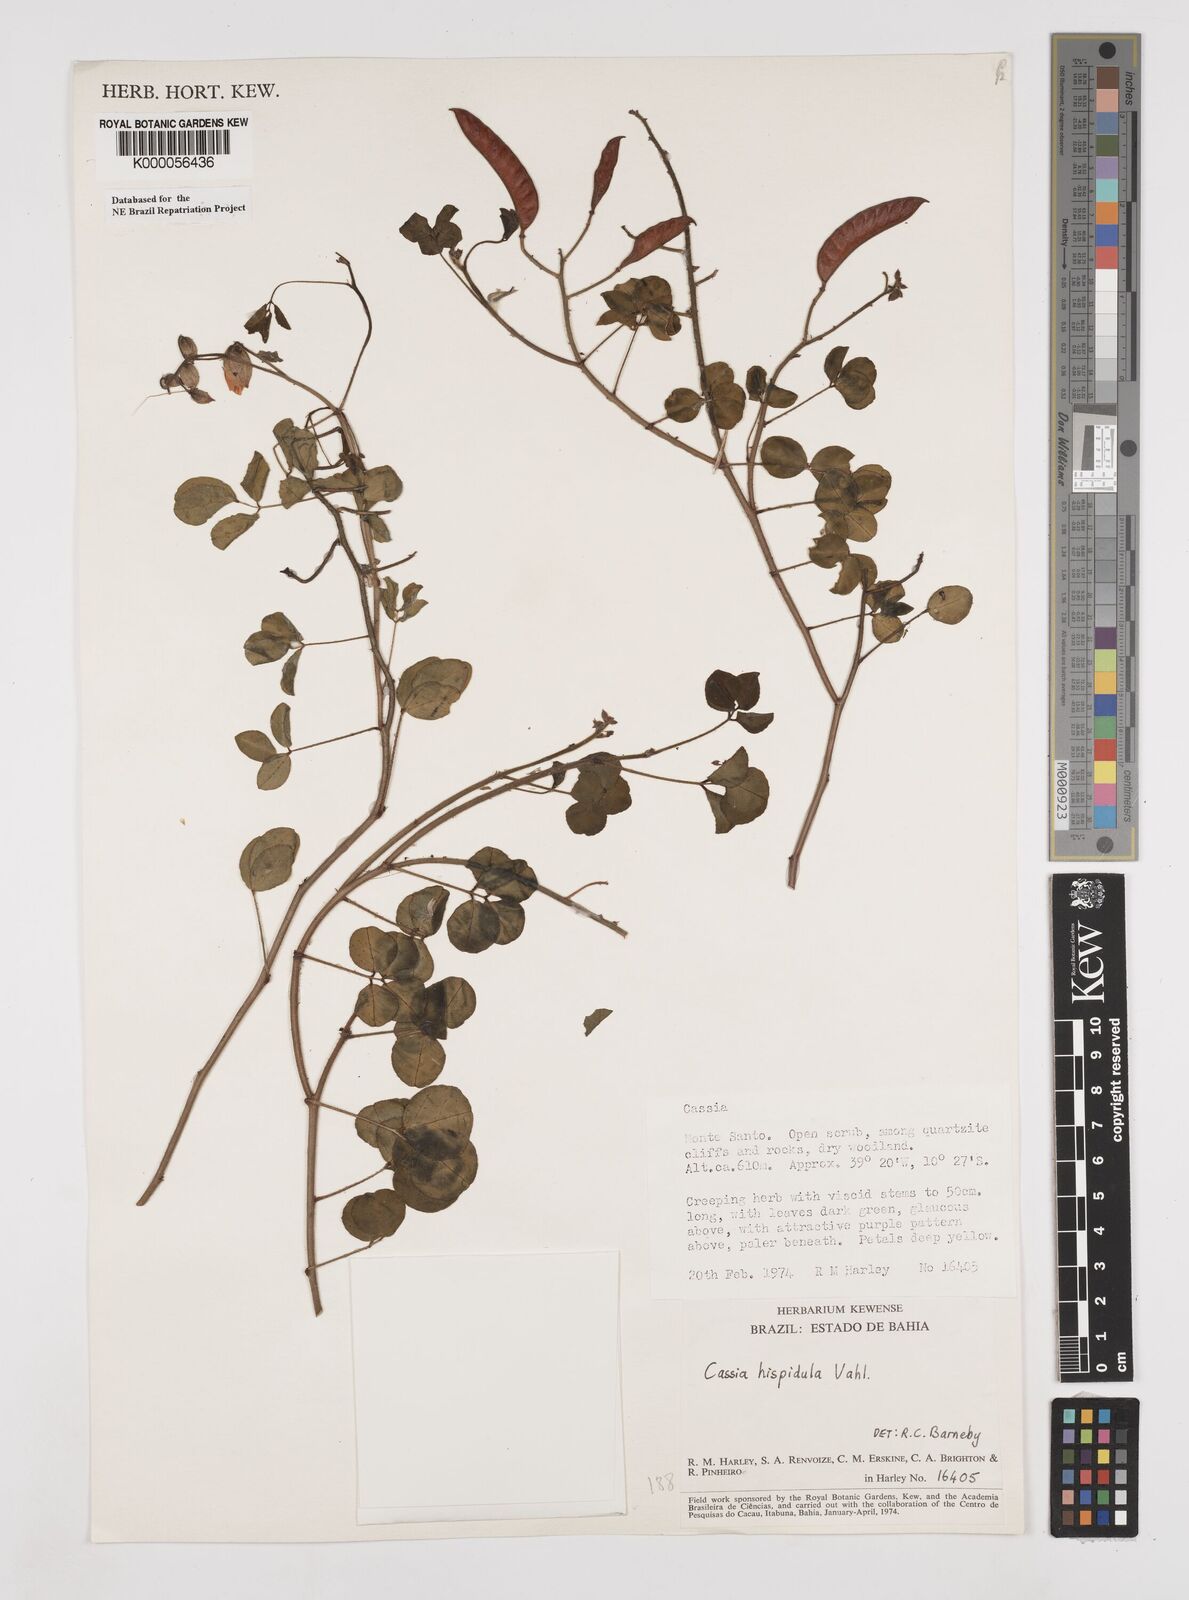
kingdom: Plantae
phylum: Tracheophyta
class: Magnoliopsida
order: Fabales
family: Fabaceae
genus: Chamaecrista
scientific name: Chamaecrista hispidula
